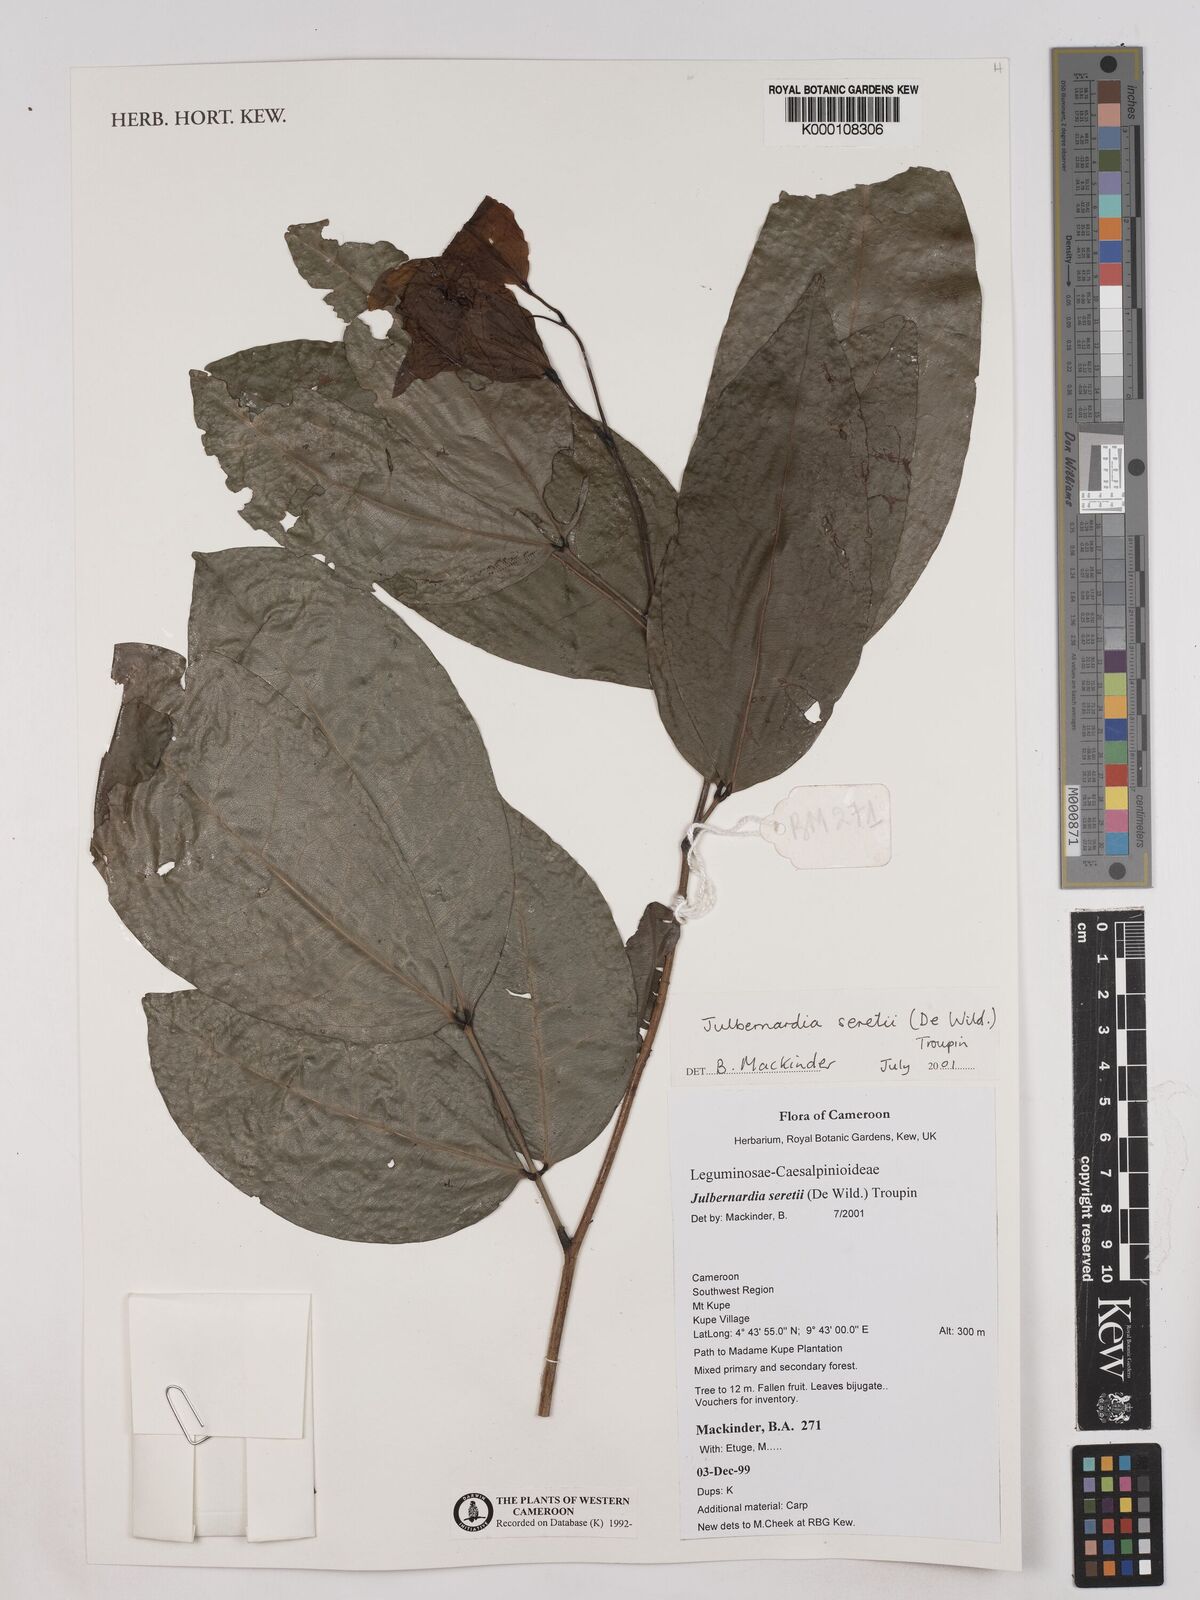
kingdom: Plantae
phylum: Tracheophyta
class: Magnoliopsida
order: Fabales
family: Fabaceae
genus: Julbernardia
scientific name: Julbernardia seretii
